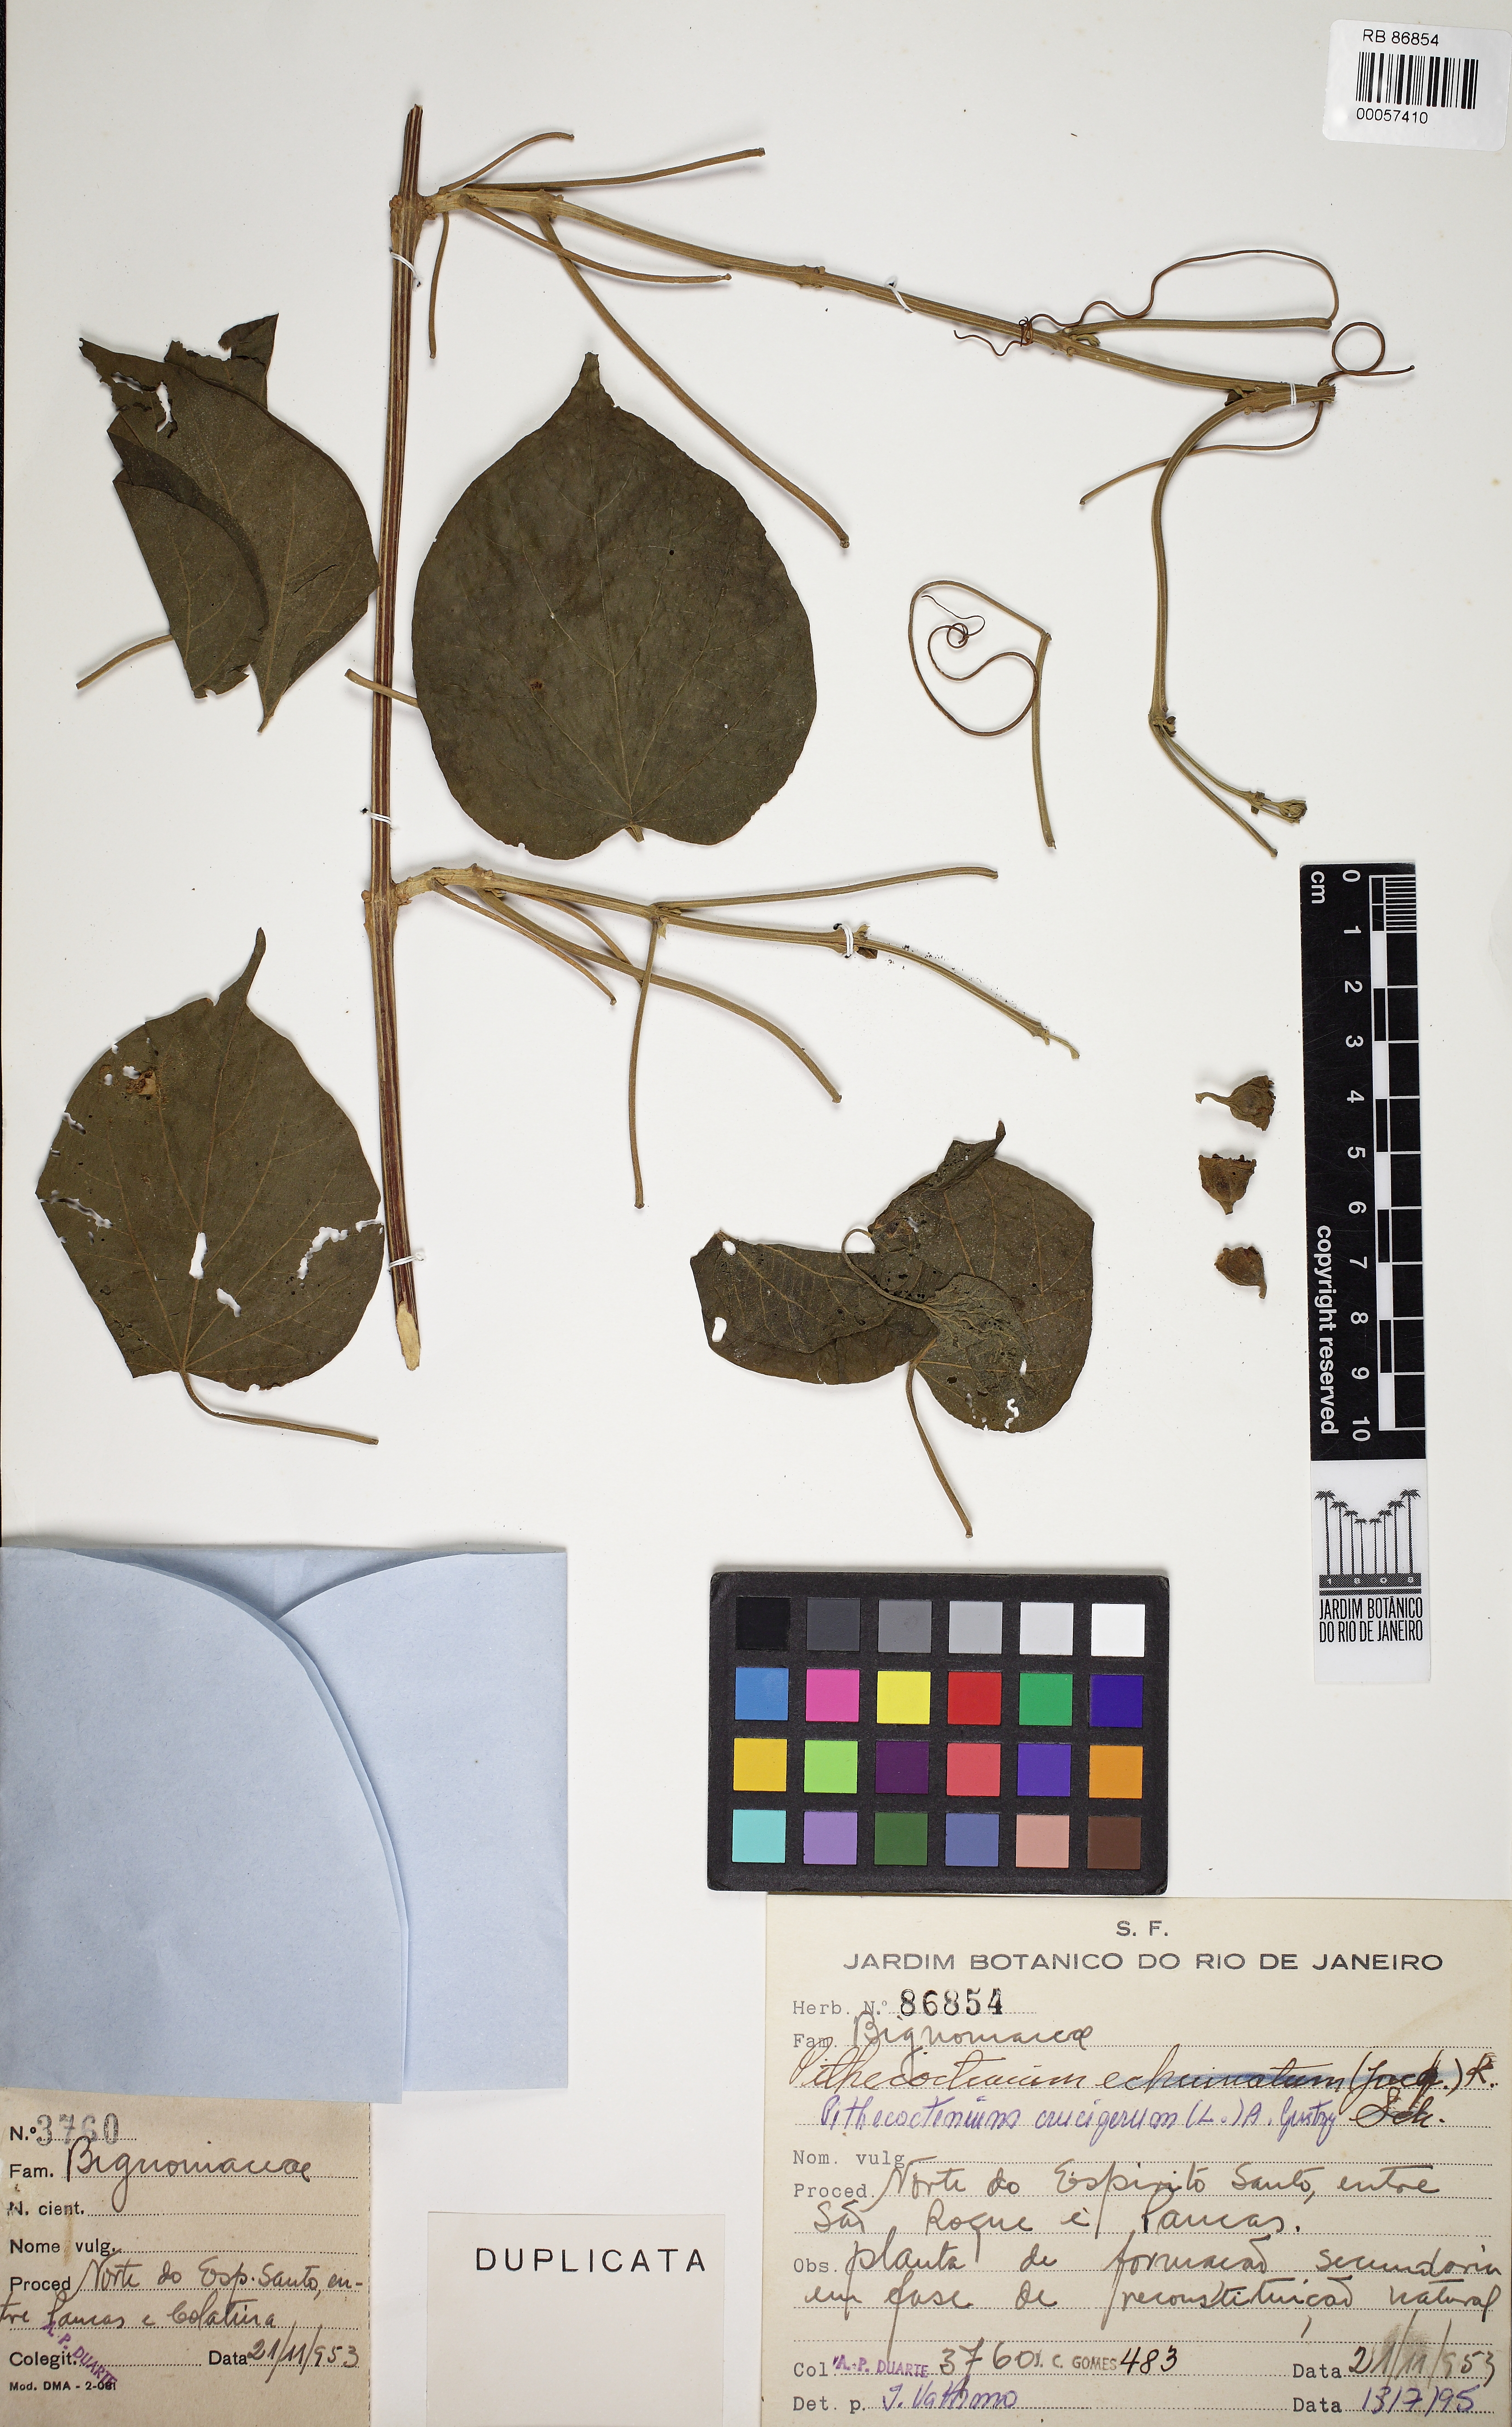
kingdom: Plantae
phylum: Tracheophyta
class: Magnoliopsida
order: Lamiales
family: Bignoniaceae
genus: Amphilophium
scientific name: Amphilophium crucigerum
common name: Monkey comb
